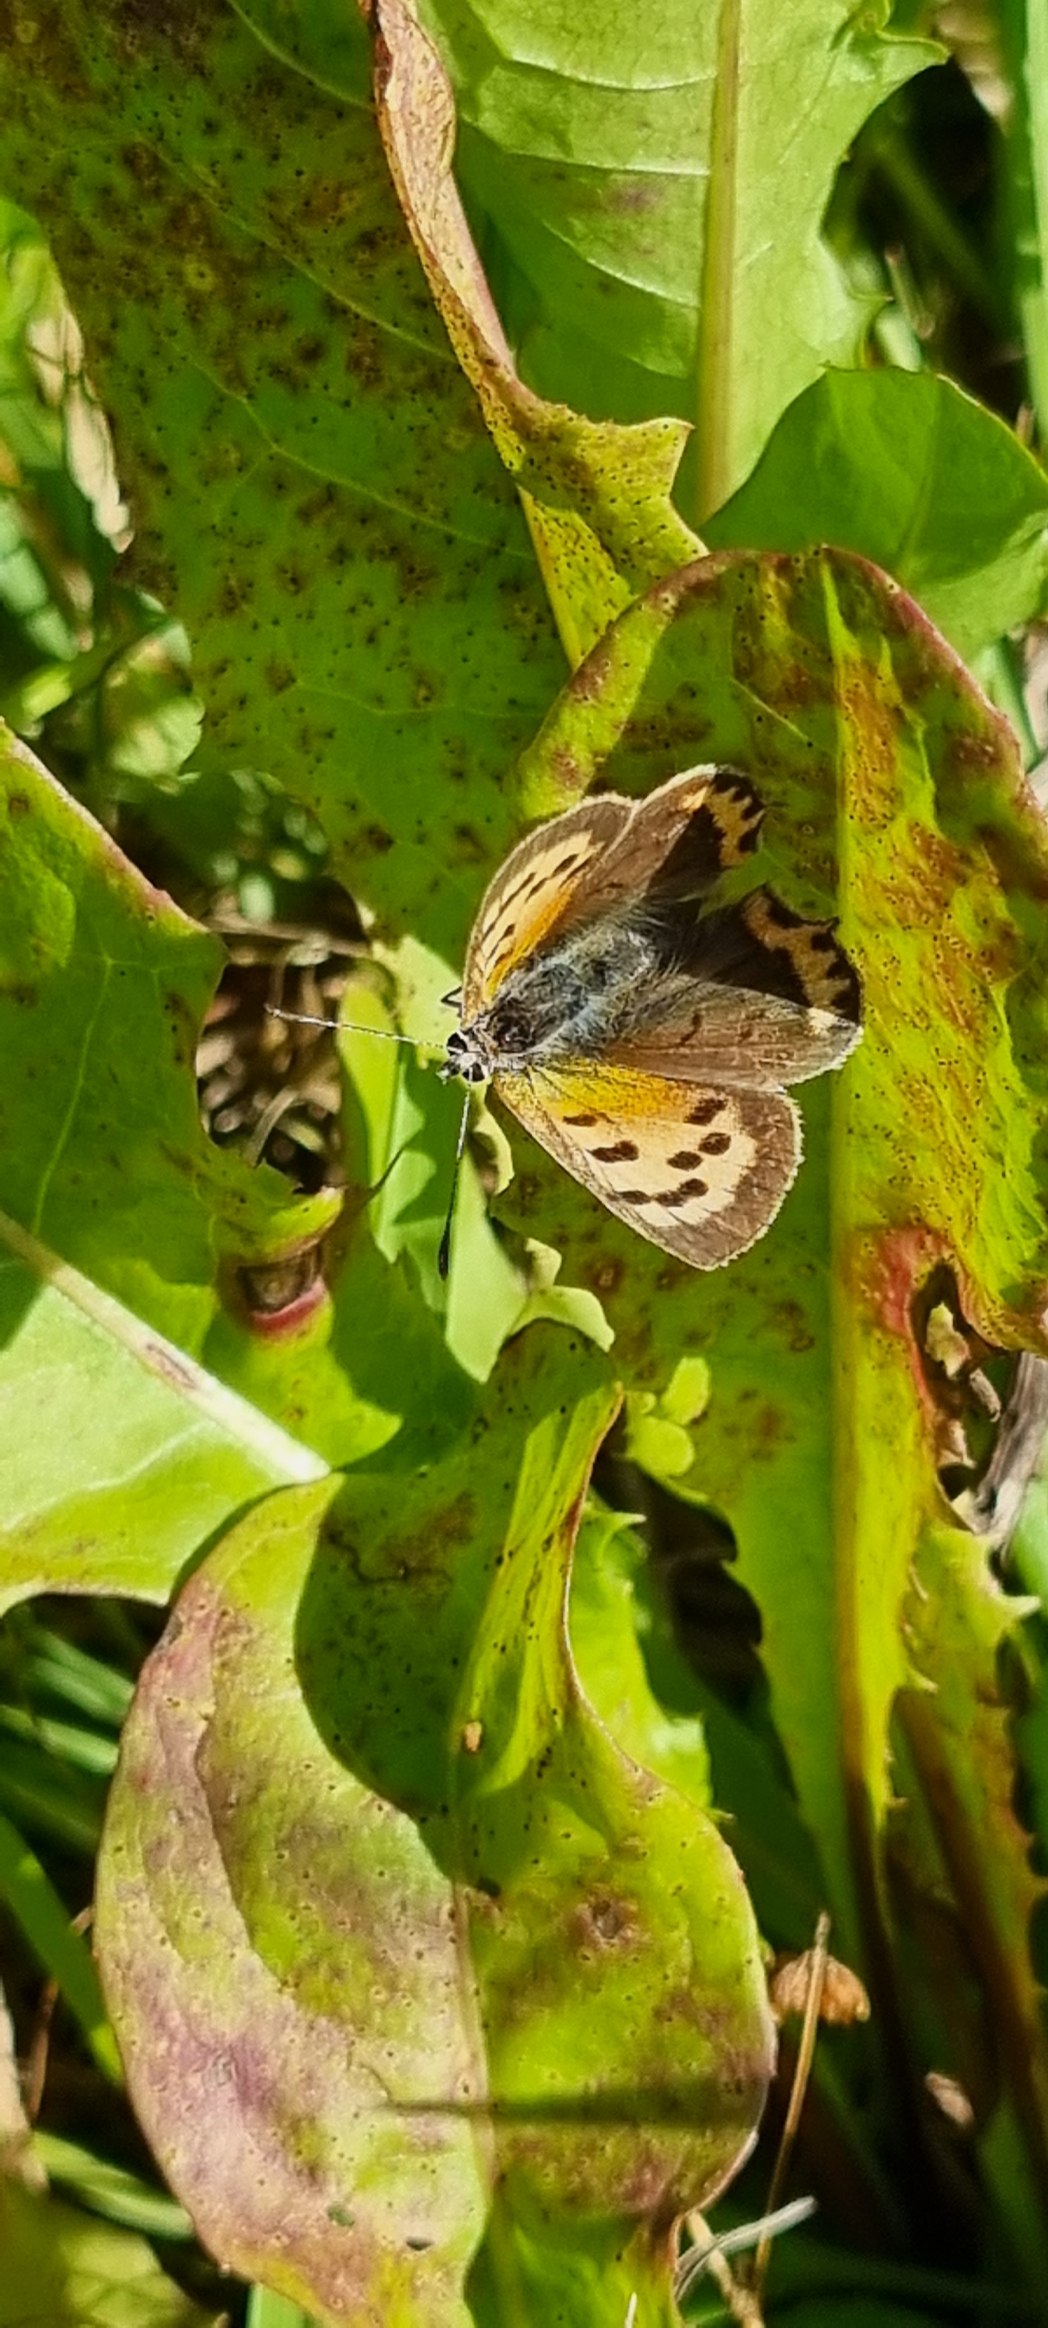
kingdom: Animalia
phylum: Arthropoda
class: Insecta
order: Lepidoptera
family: Lycaenidae
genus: Lycaena
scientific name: Lycaena phlaeas
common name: Lille ildfugl
